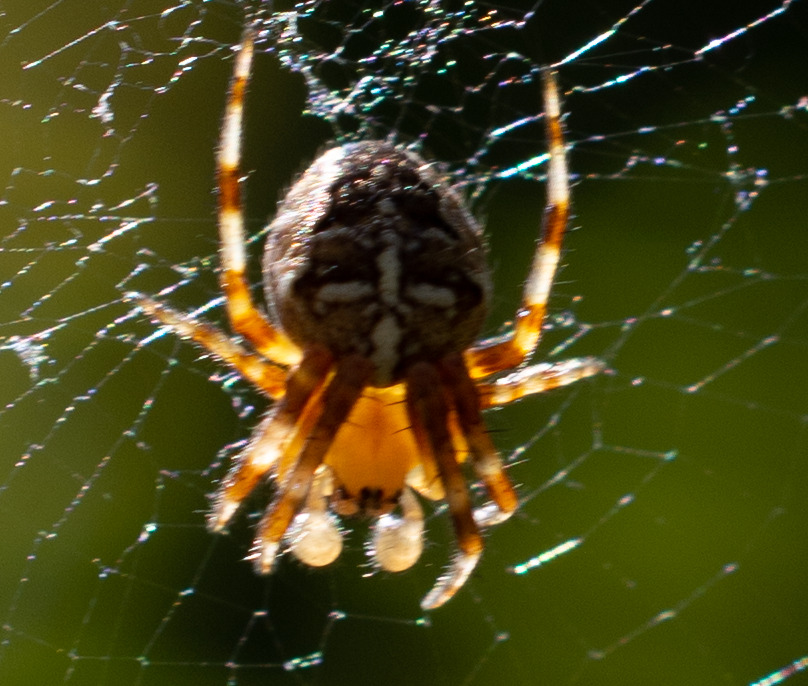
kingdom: Animalia
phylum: Arthropoda
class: Arachnida
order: Araneae
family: Araneidae
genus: Araneus
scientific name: Araneus diadematus
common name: Korsedderkop
